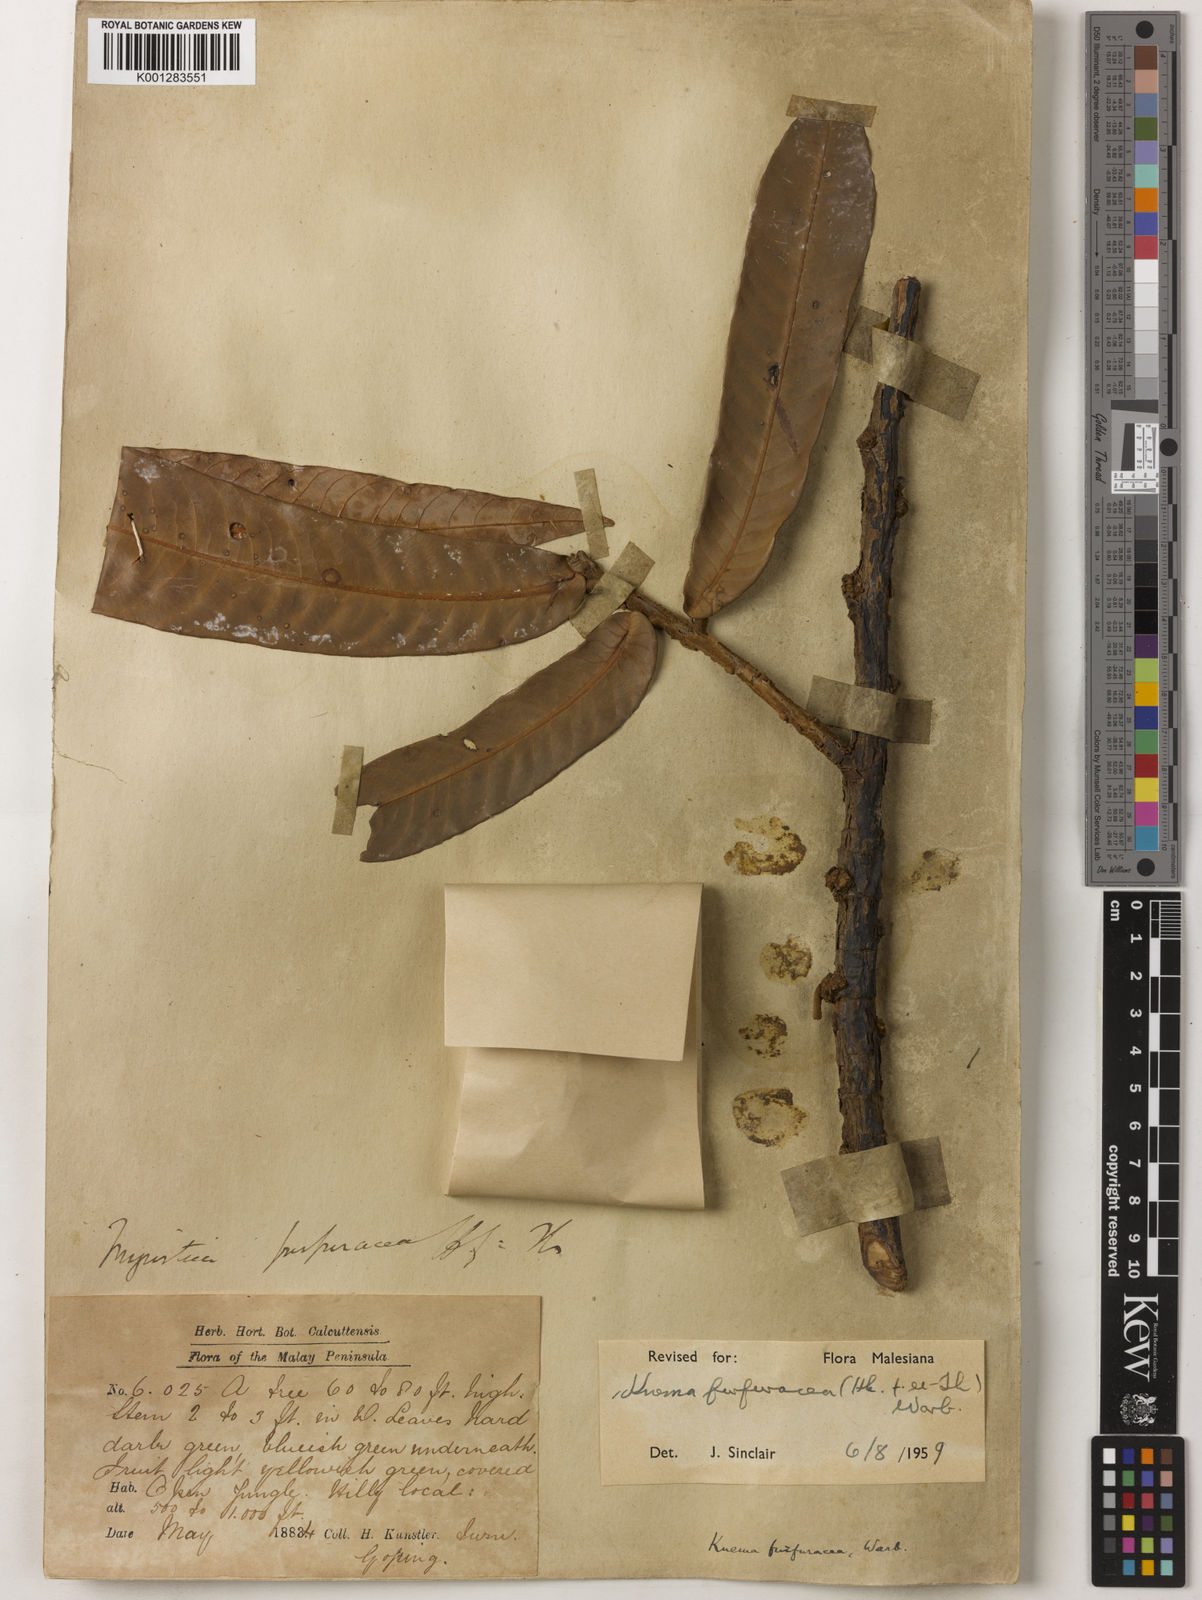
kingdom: Plantae
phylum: Tracheophyta
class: Magnoliopsida
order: Magnoliales
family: Myristicaceae
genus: Knema
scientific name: Knema furfuracea
